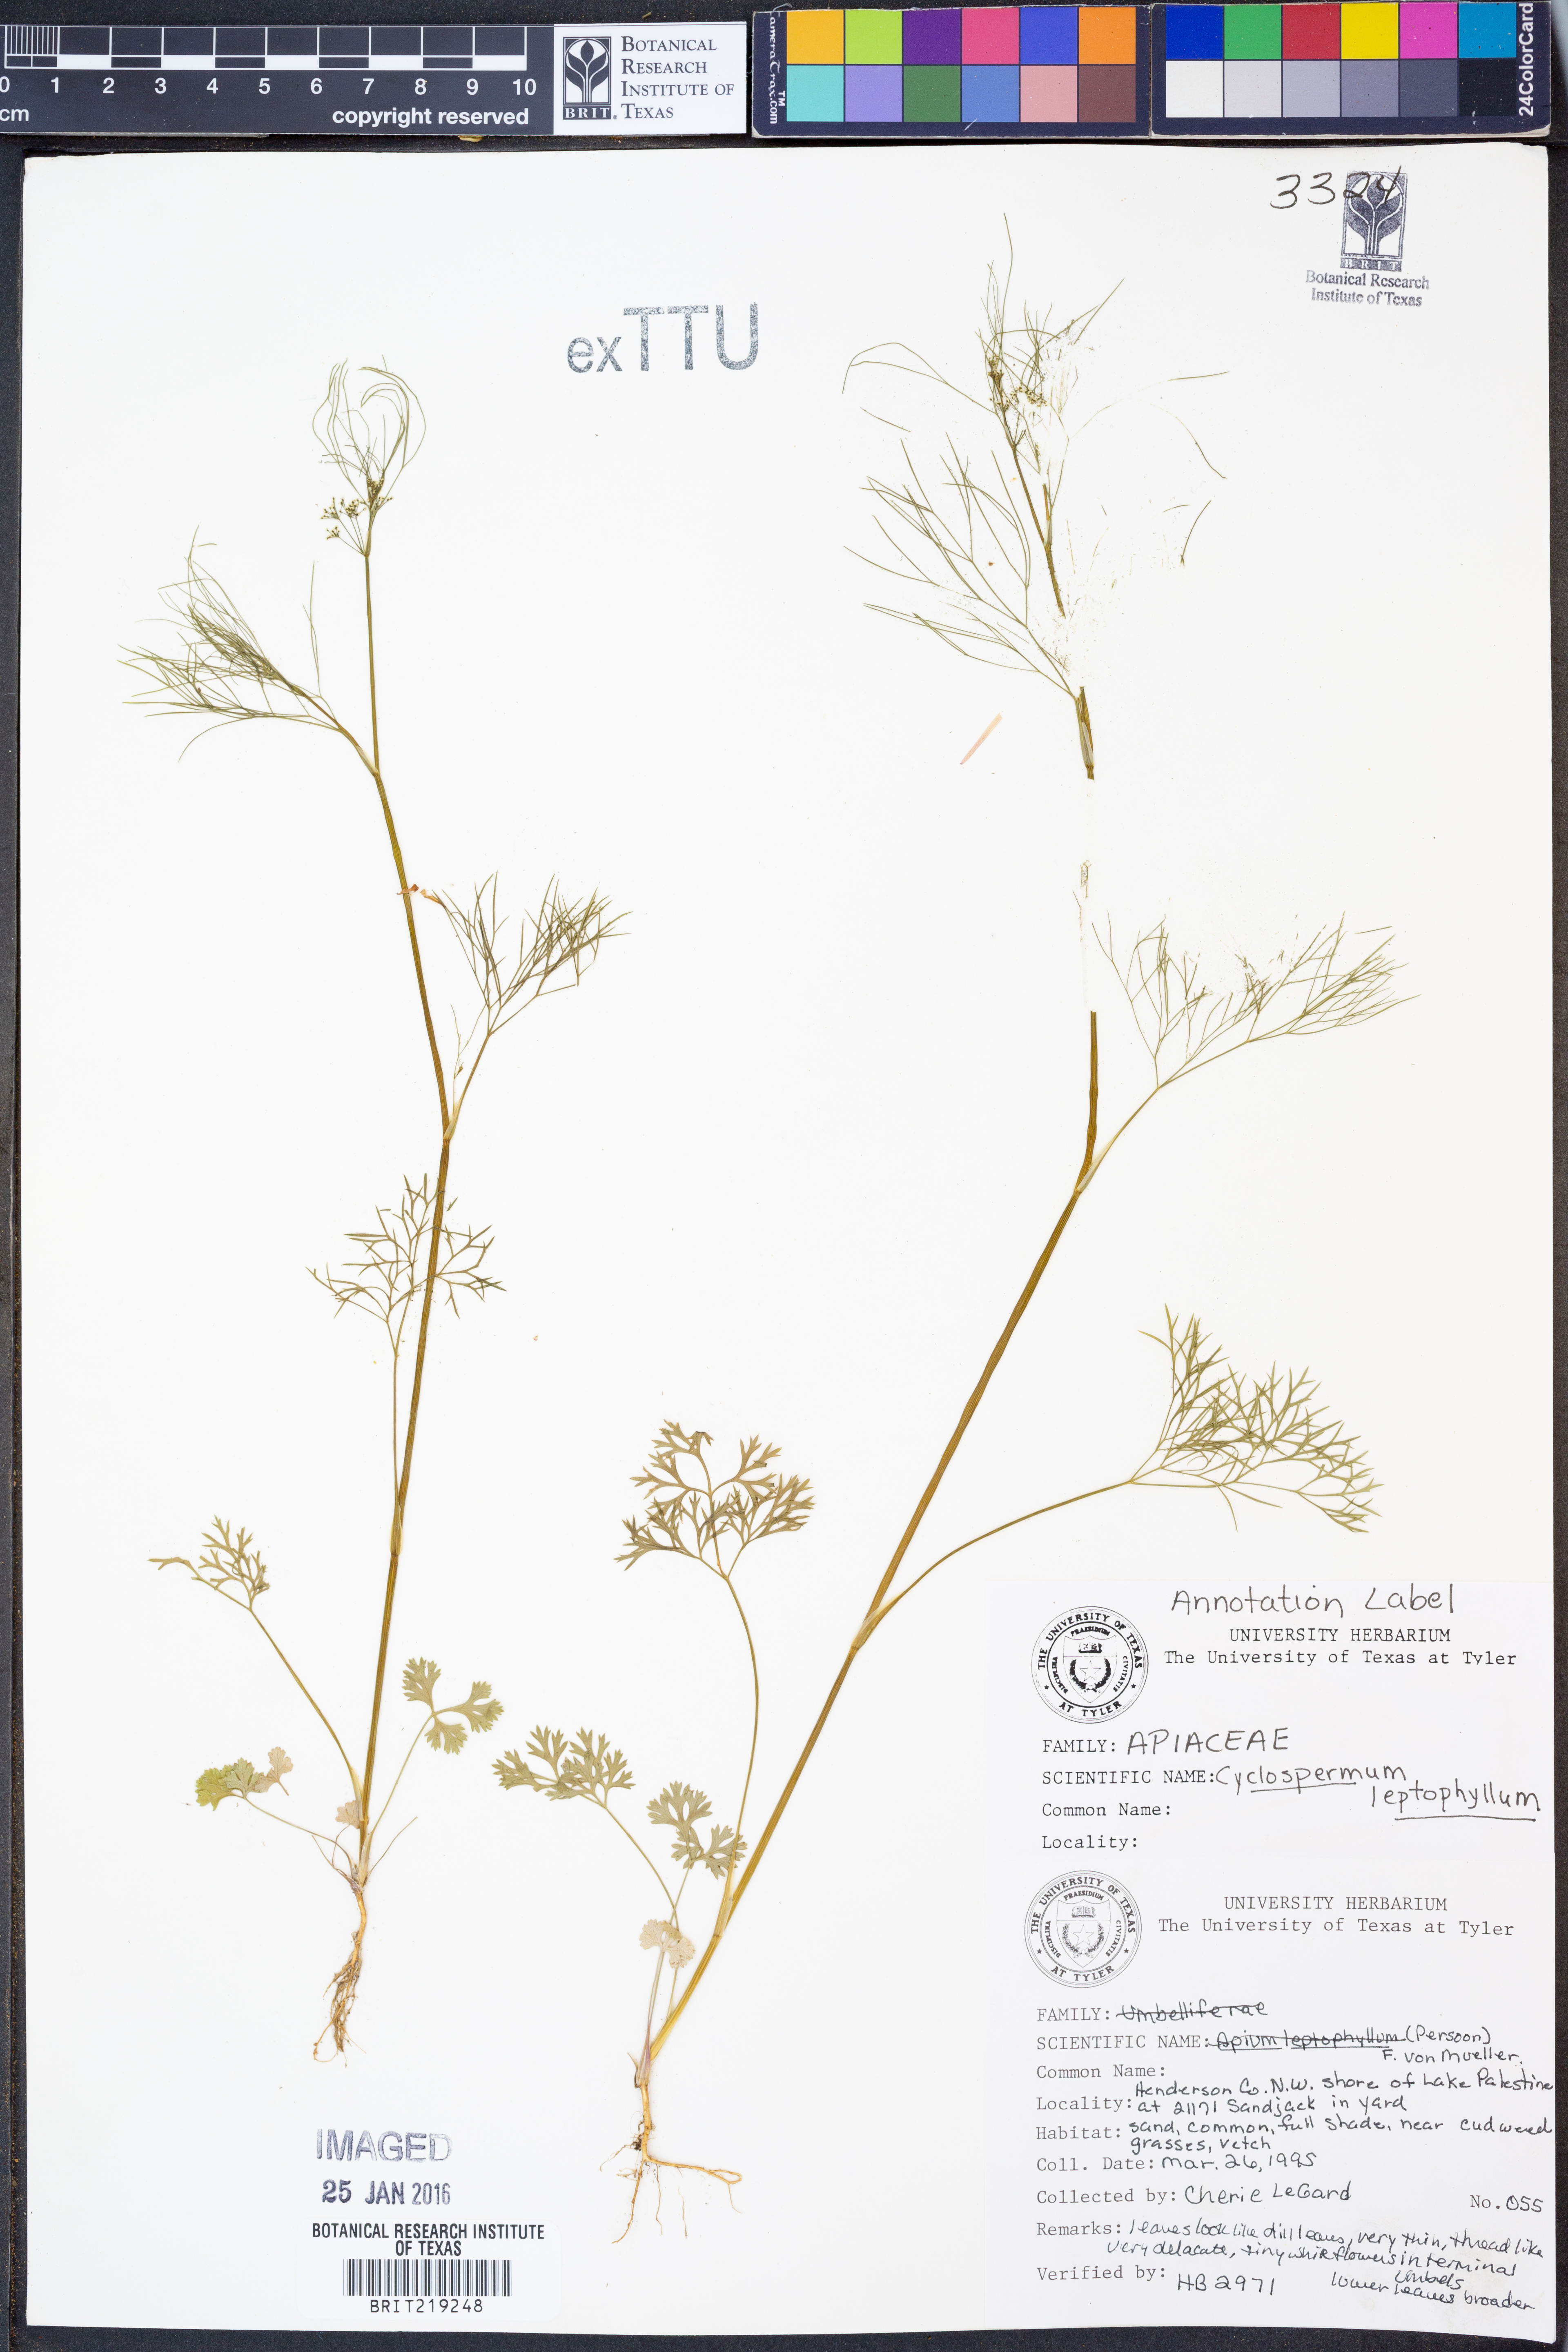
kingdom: Plantae
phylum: Tracheophyta
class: Magnoliopsida
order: Apiales
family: Apiaceae
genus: Cyclospermum
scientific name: Cyclospermum leptophyllum
